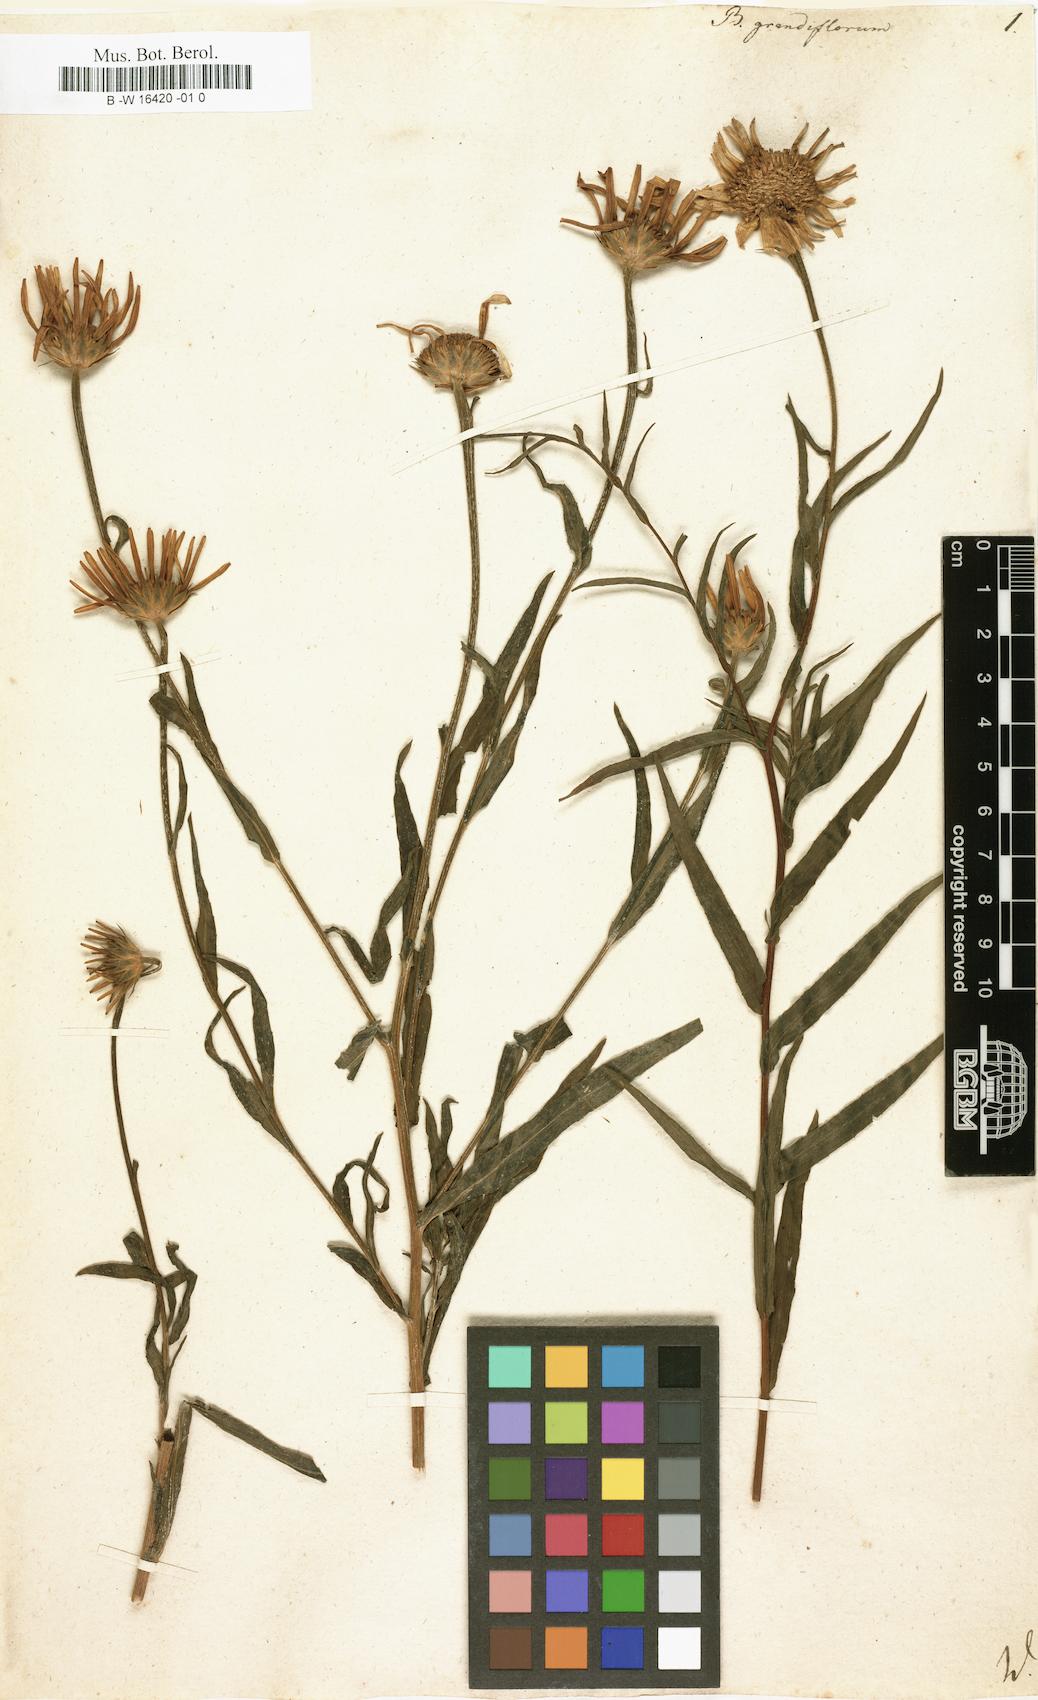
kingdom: Plantae
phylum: Tracheophyta
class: Magnoliopsida
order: Asterales
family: Asteraceae
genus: Buphthalmum
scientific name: Buphthalmum salicifolium
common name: Willow-leaved yellow-oxeye
